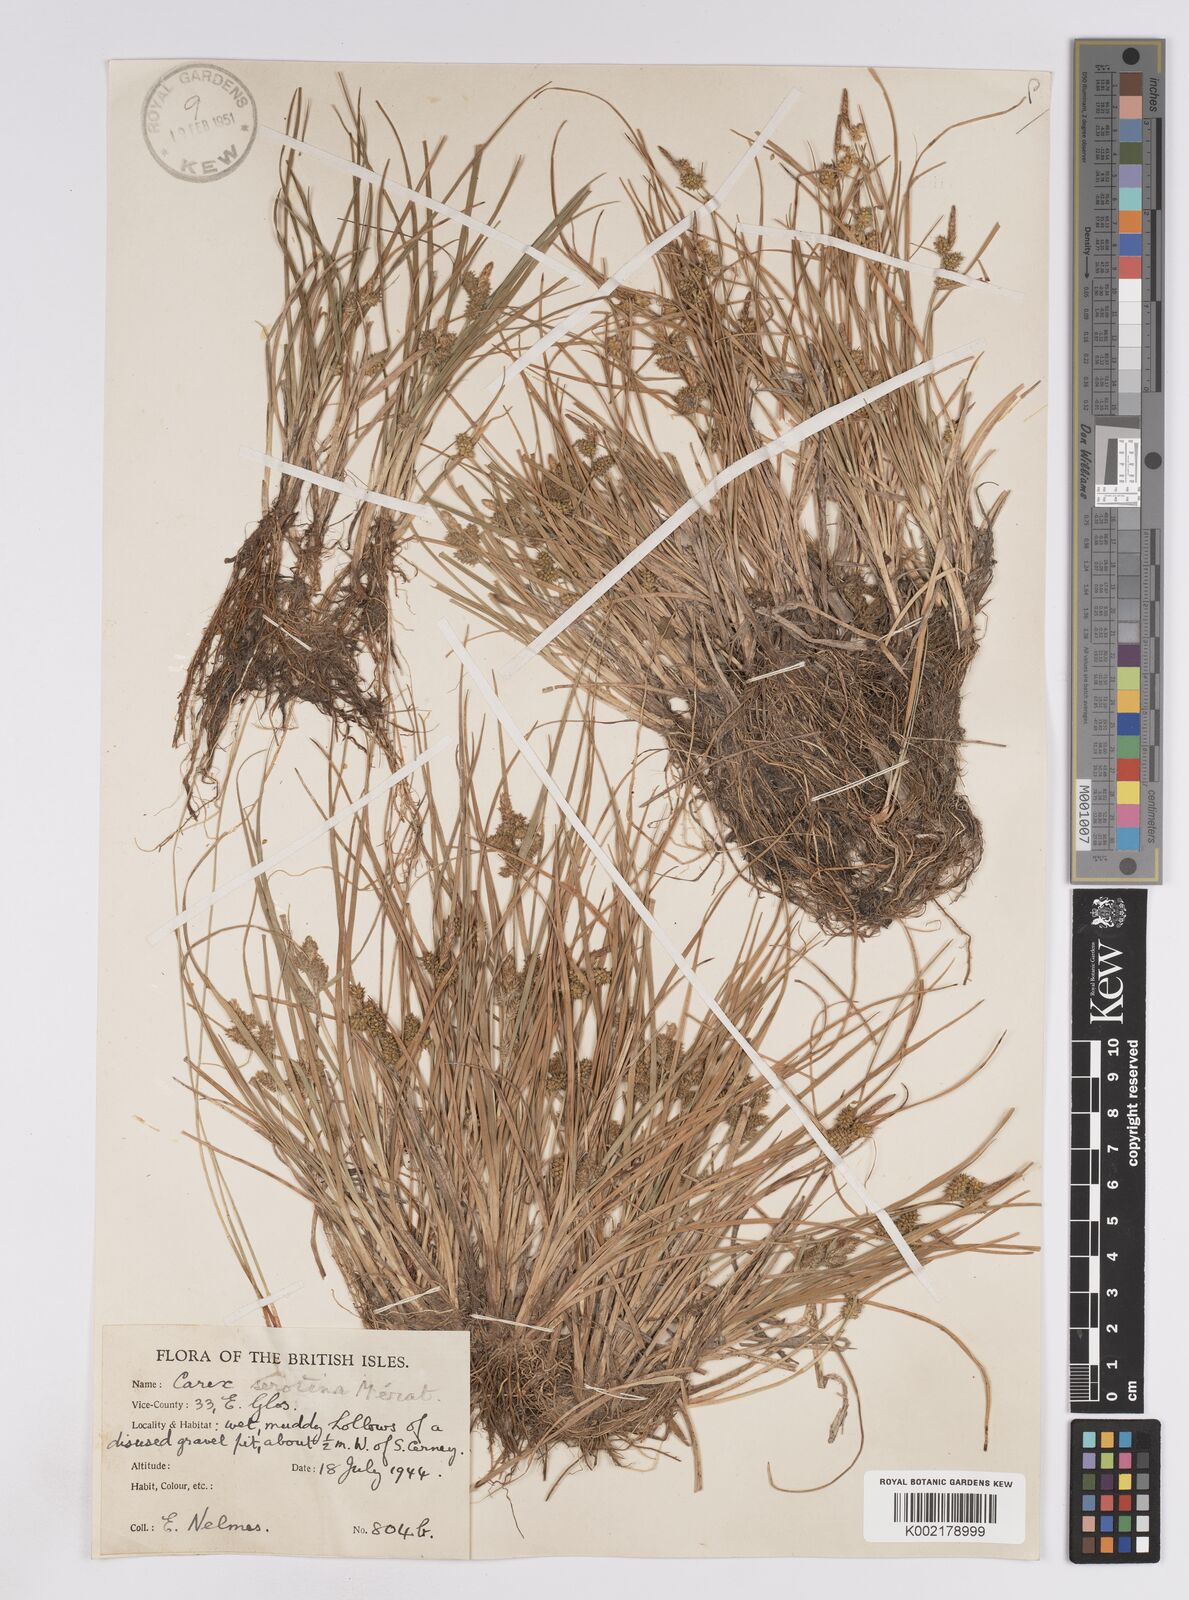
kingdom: Plantae
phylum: Tracheophyta
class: Liliopsida
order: Poales
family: Cyperaceae
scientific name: Cyperaceae
